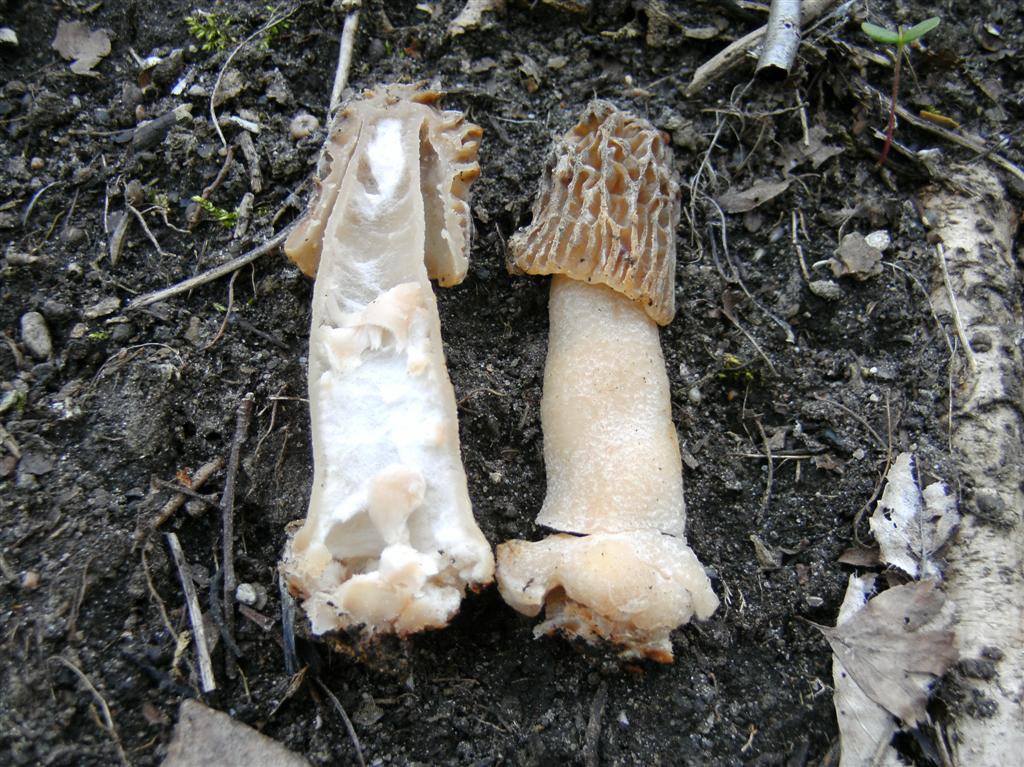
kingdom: Fungi
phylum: Ascomycota
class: Pezizomycetes
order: Pezizales
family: Morchellaceae
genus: Verpa
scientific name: Verpa bohemica
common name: rynket klokkemorkel
